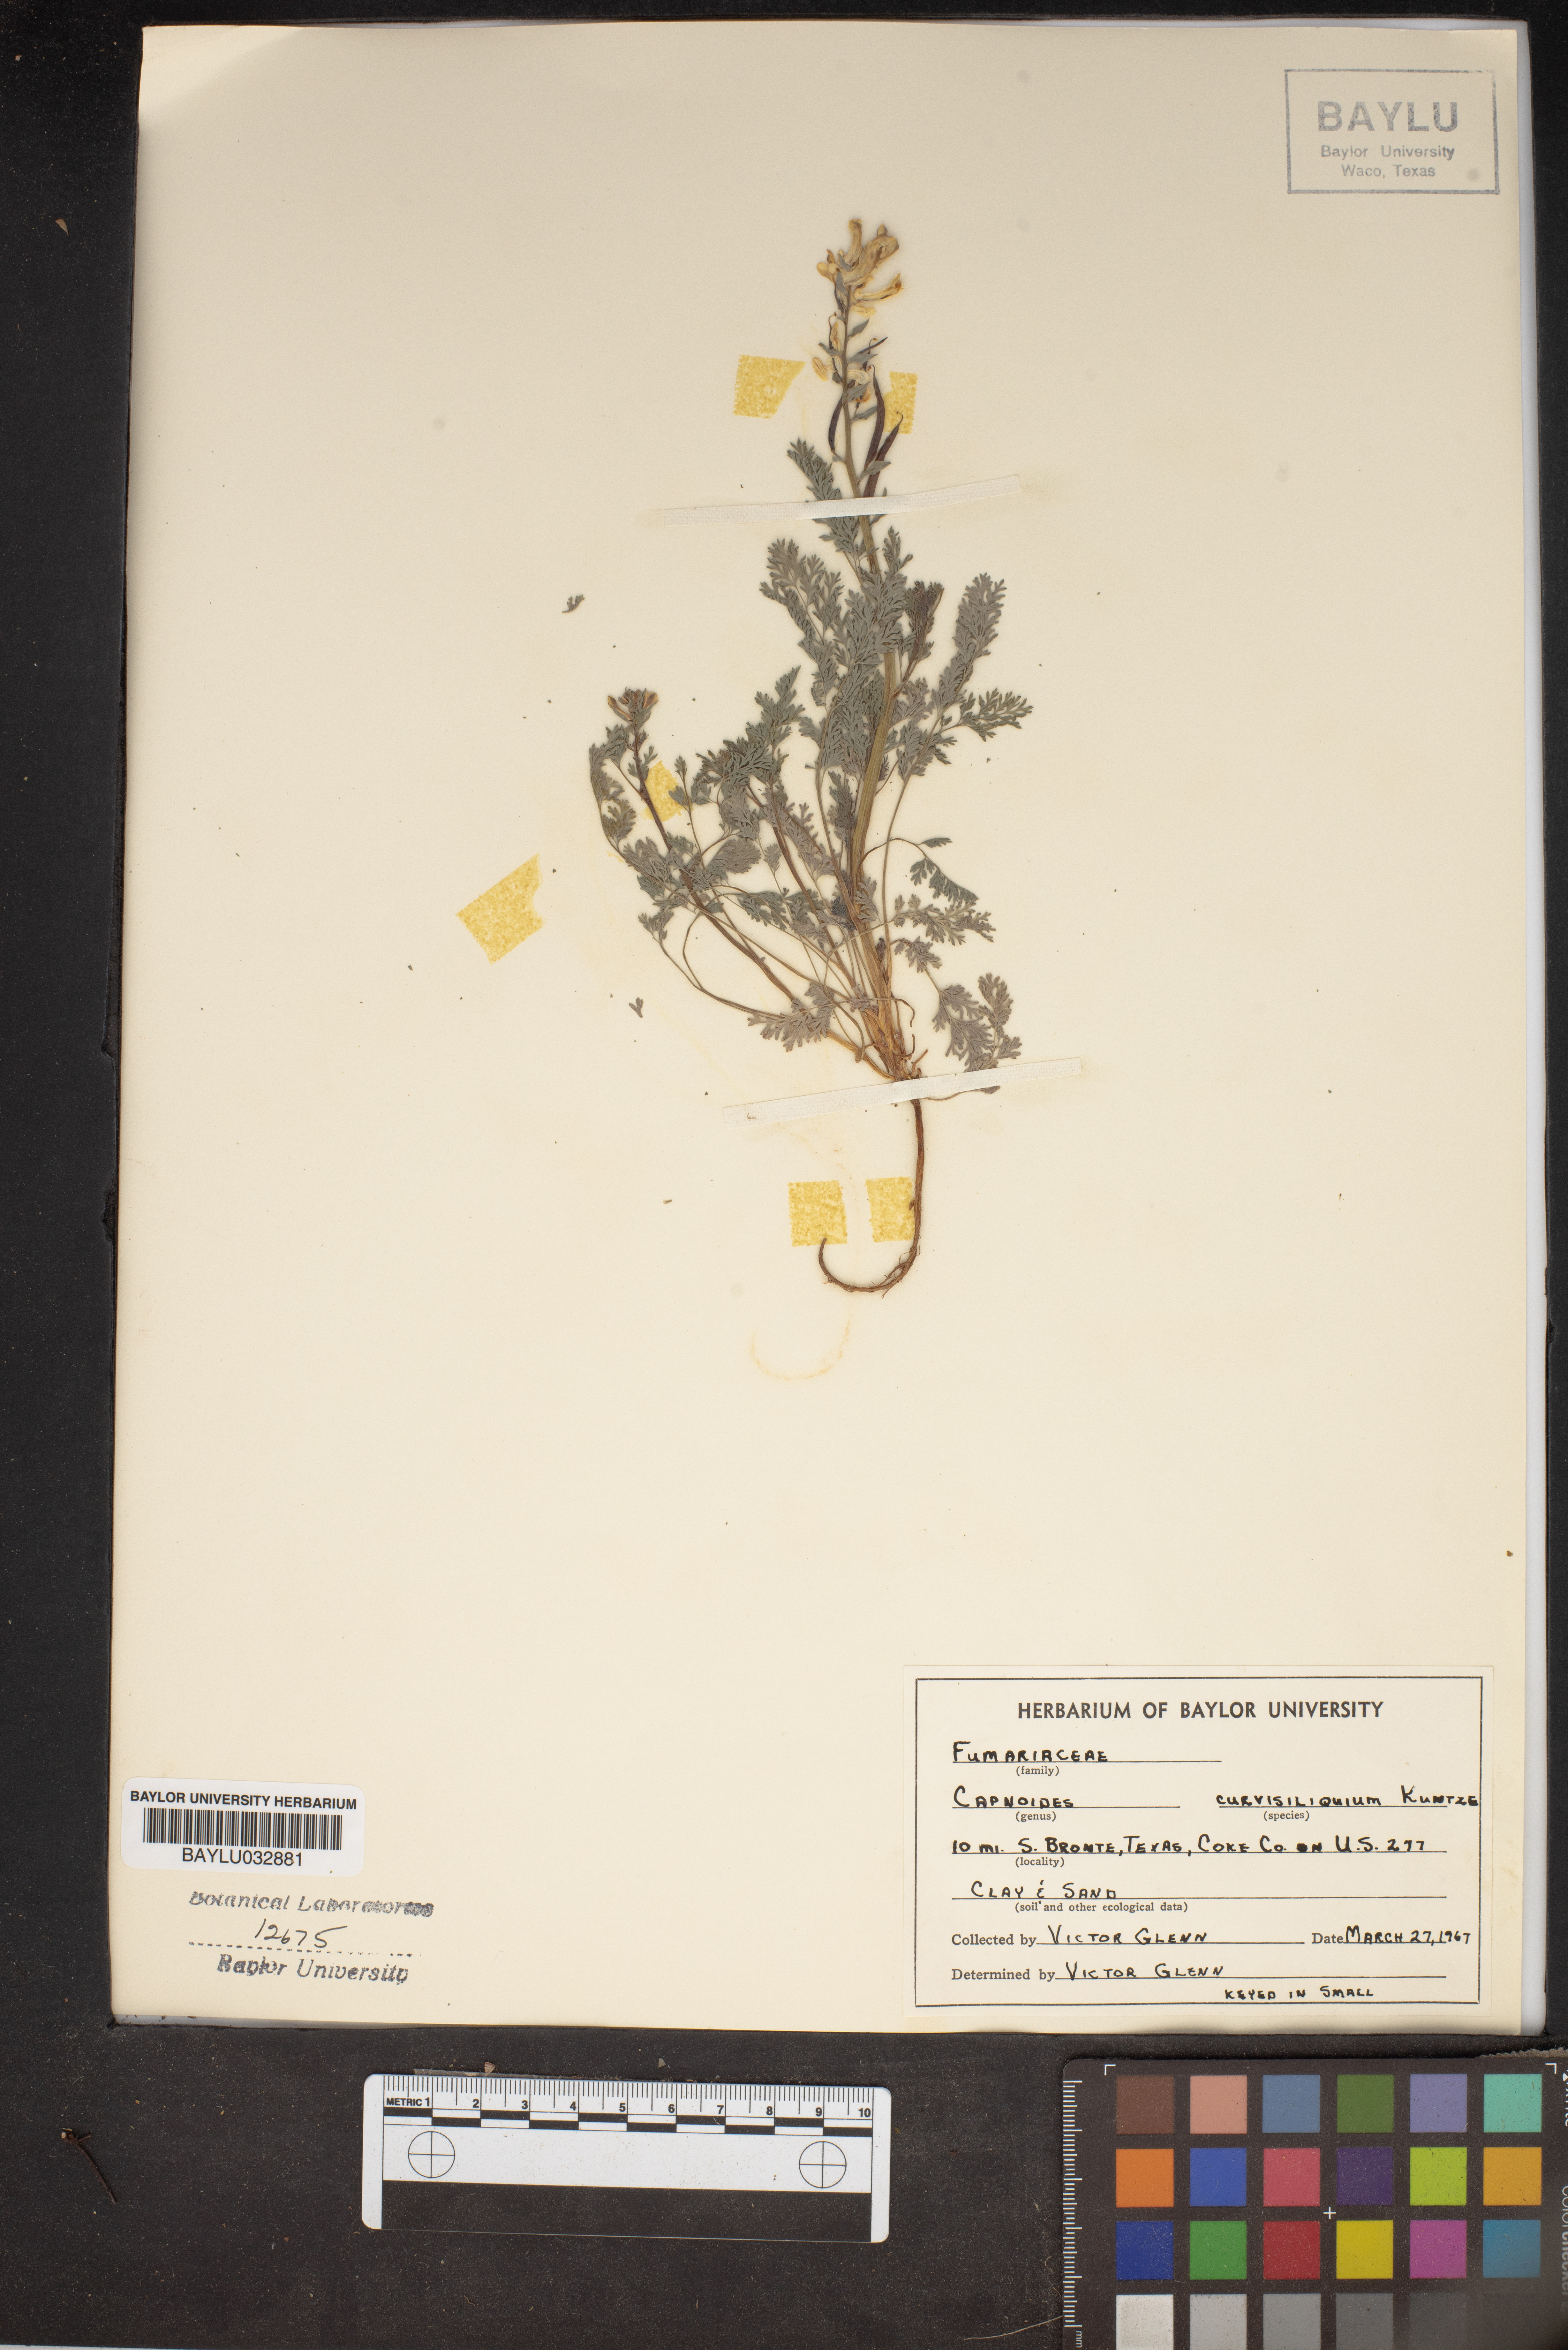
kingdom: Plantae
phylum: Tracheophyta
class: Magnoliopsida
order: Ranunculales
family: Papaveraceae
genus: Corydalis
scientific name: Corydalis curvisiliqua
